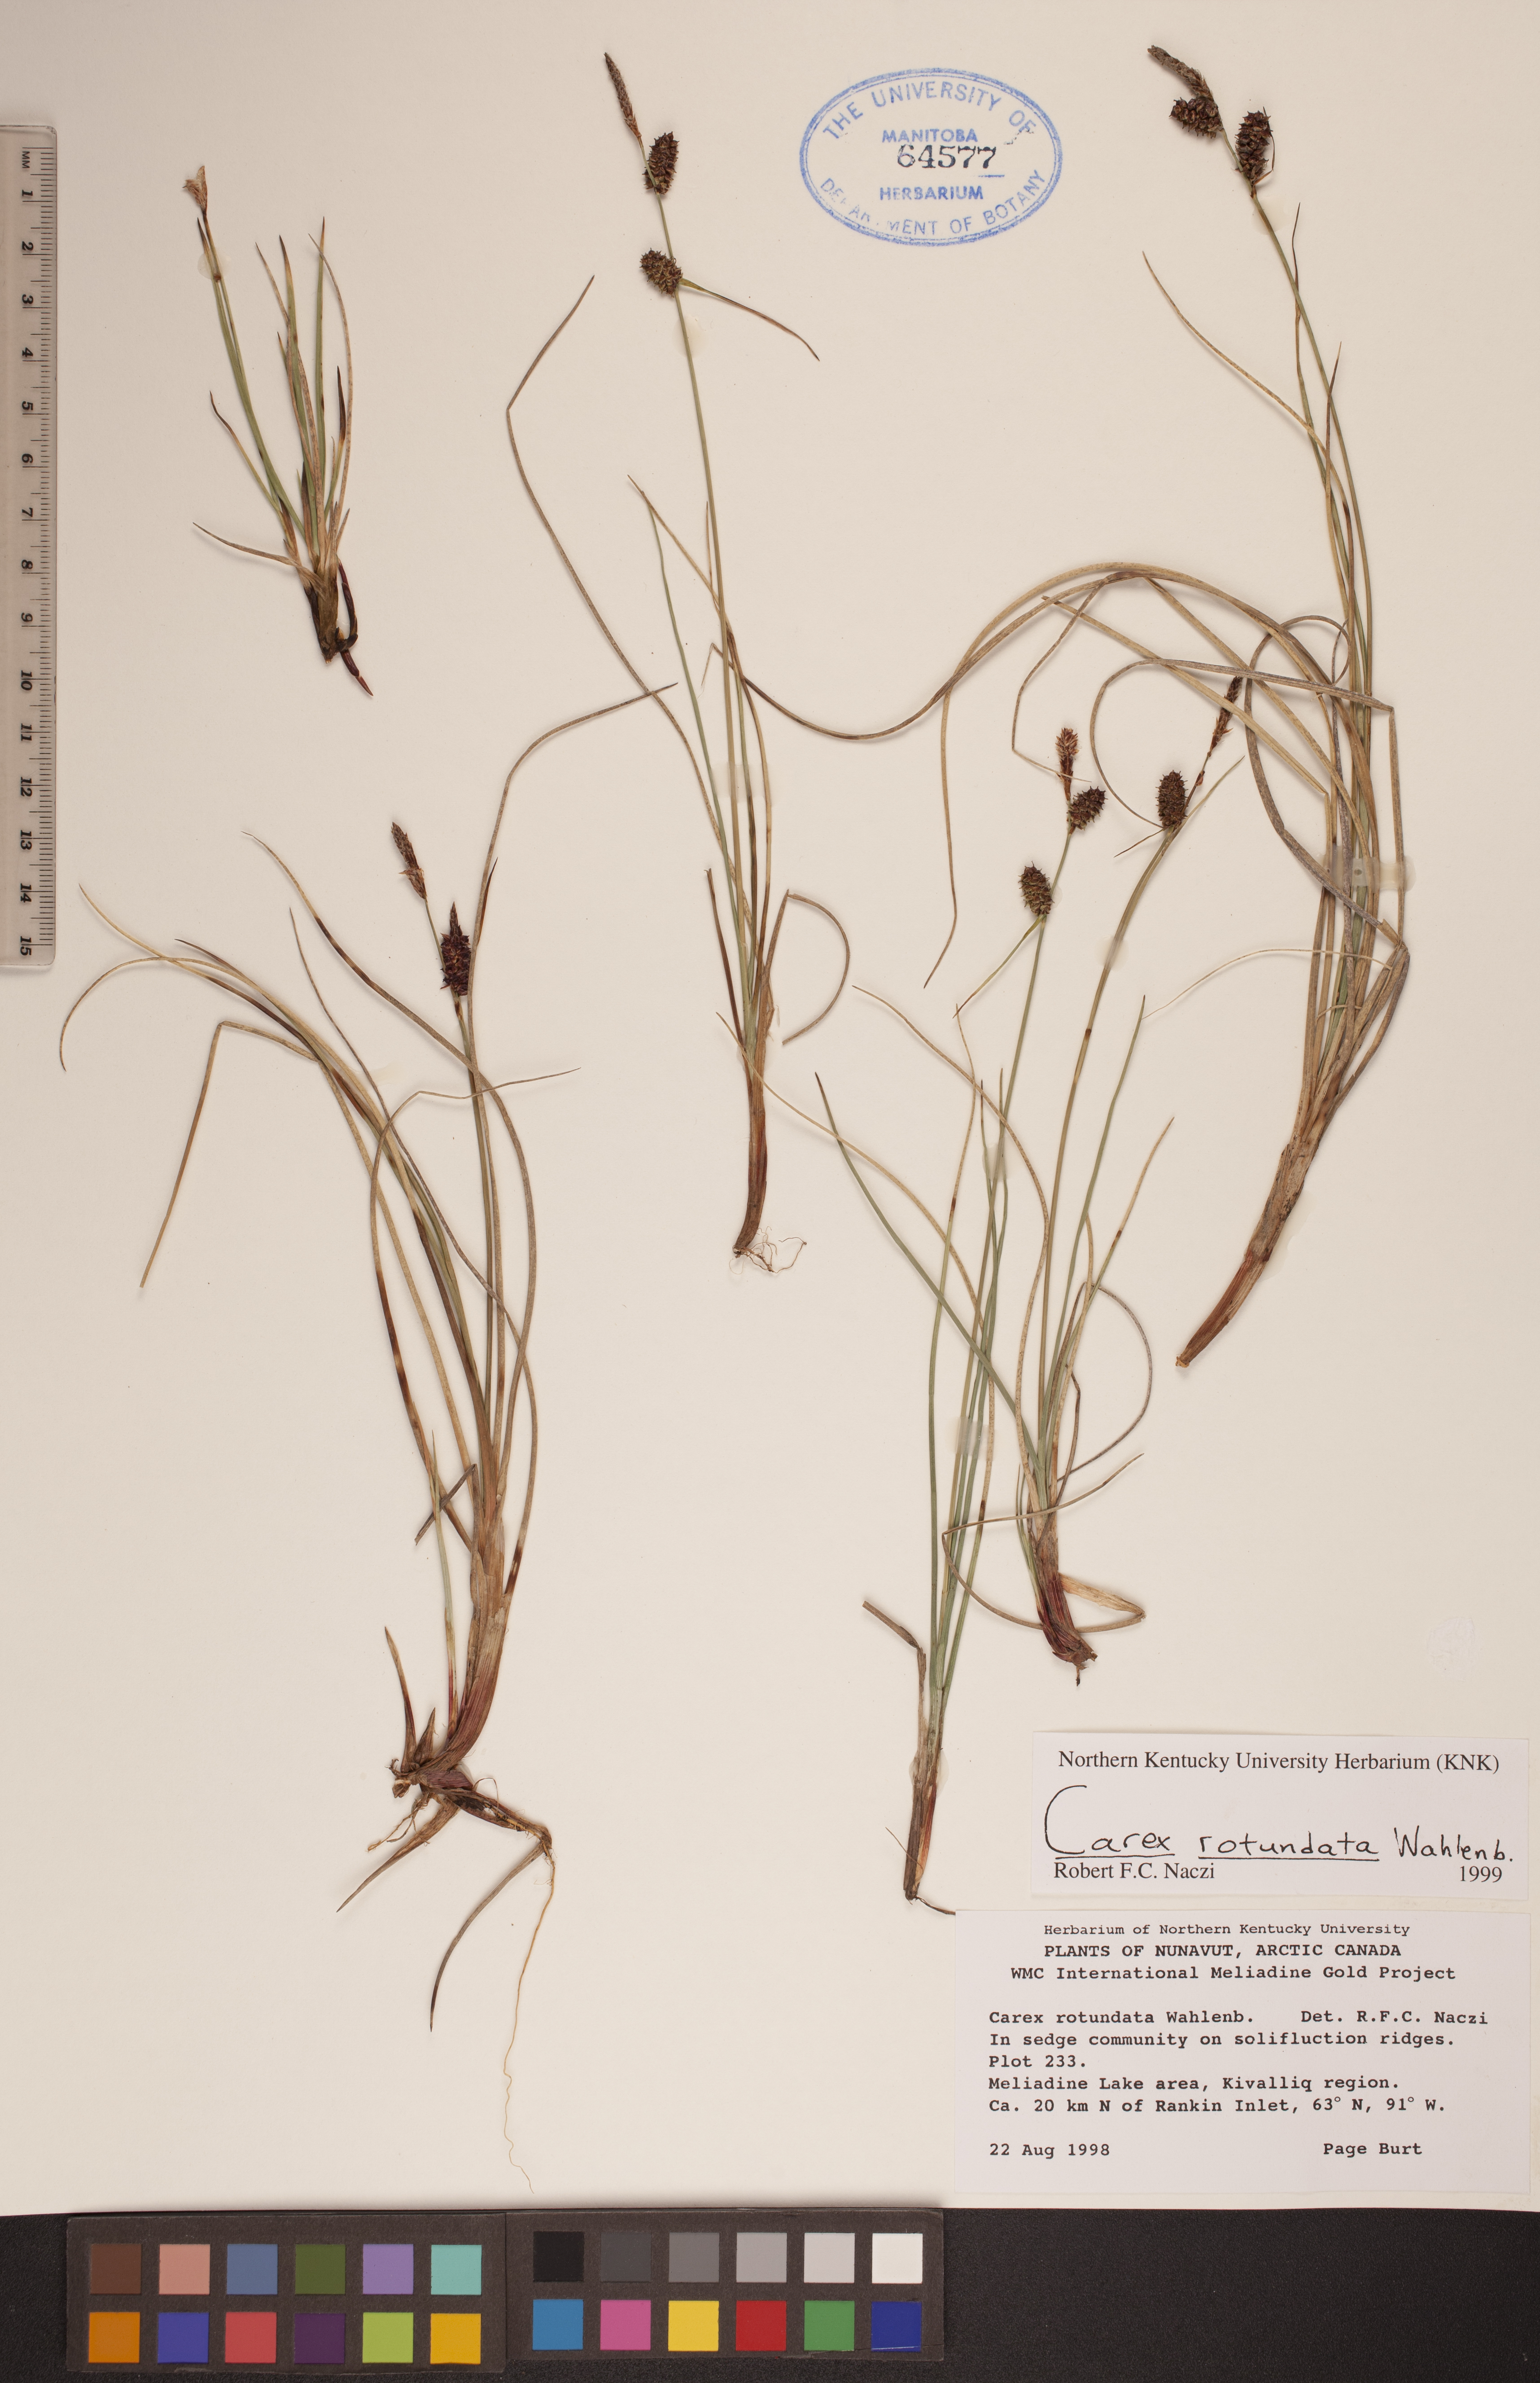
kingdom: Plantae
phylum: Tracheophyta
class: Liliopsida
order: Poales
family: Cyperaceae
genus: Carex
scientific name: Carex rotundata
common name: Round-fruited sedge
